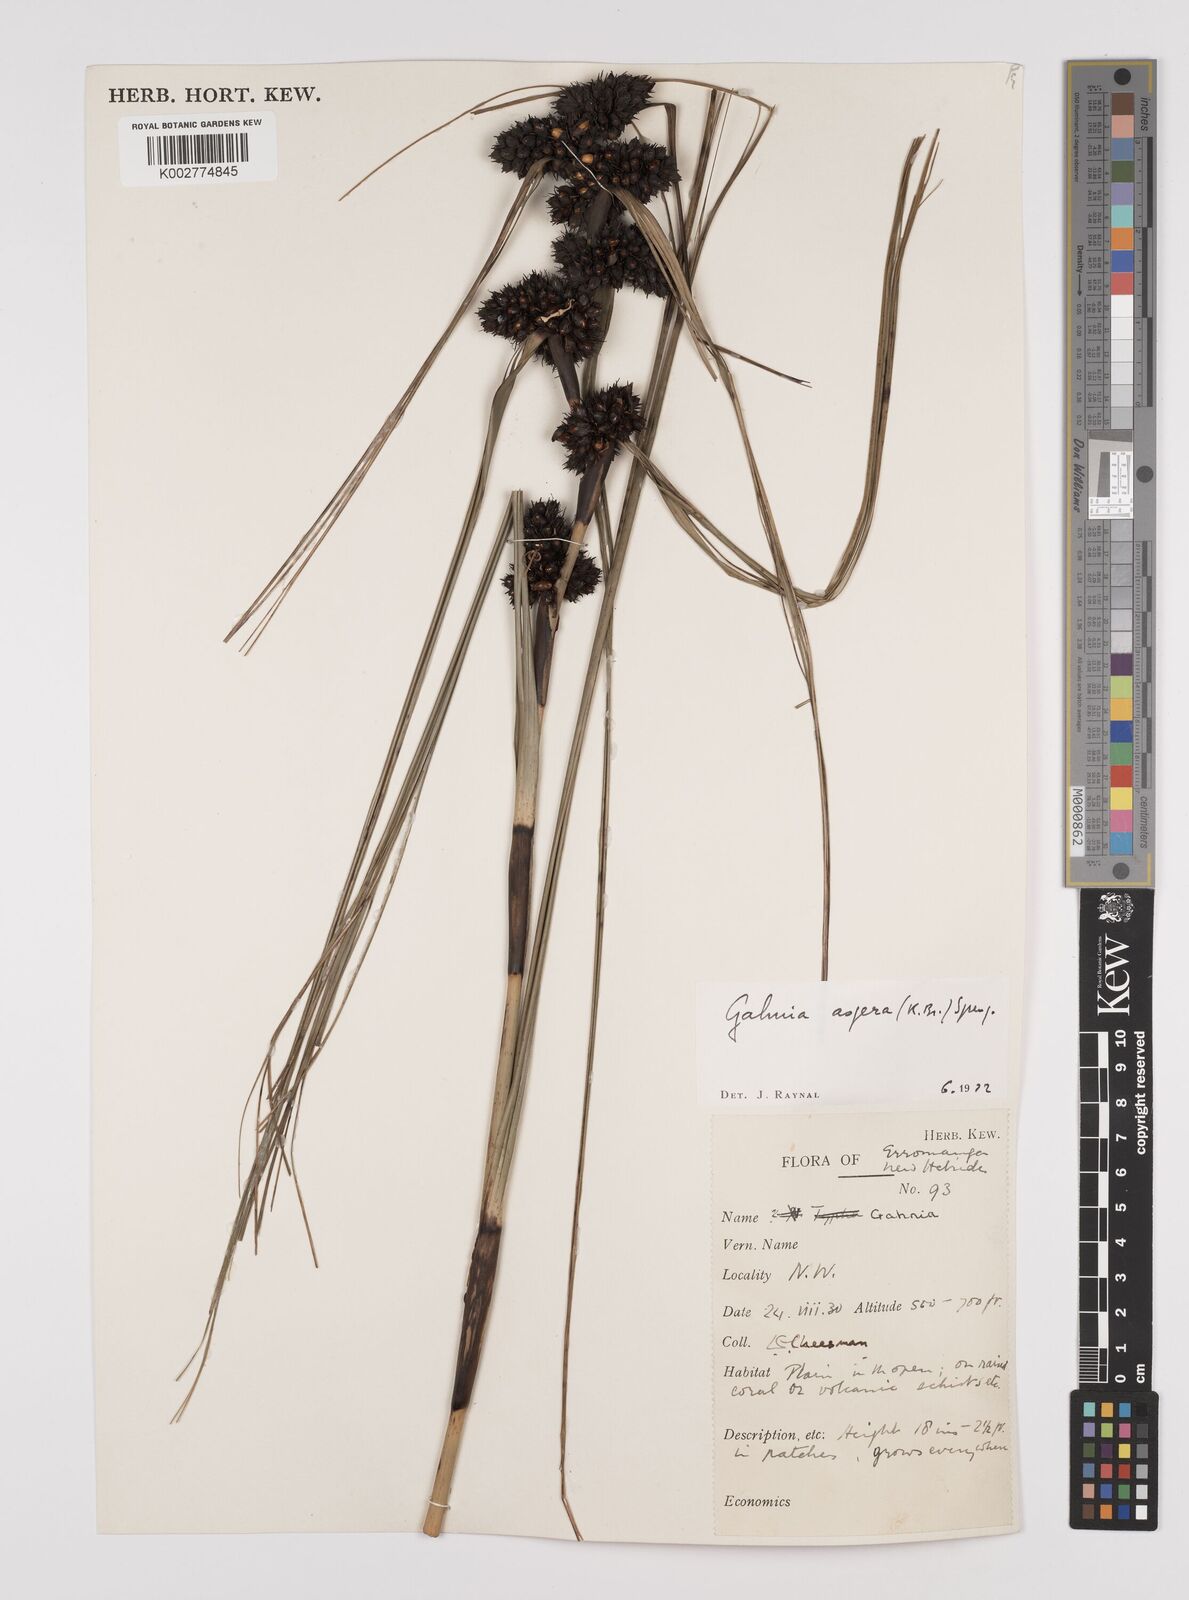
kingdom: Plantae
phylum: Tracheophyta
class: Liliopsida
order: Poales
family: Cyperaceae
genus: Gahnia
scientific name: Gahnia aspera
